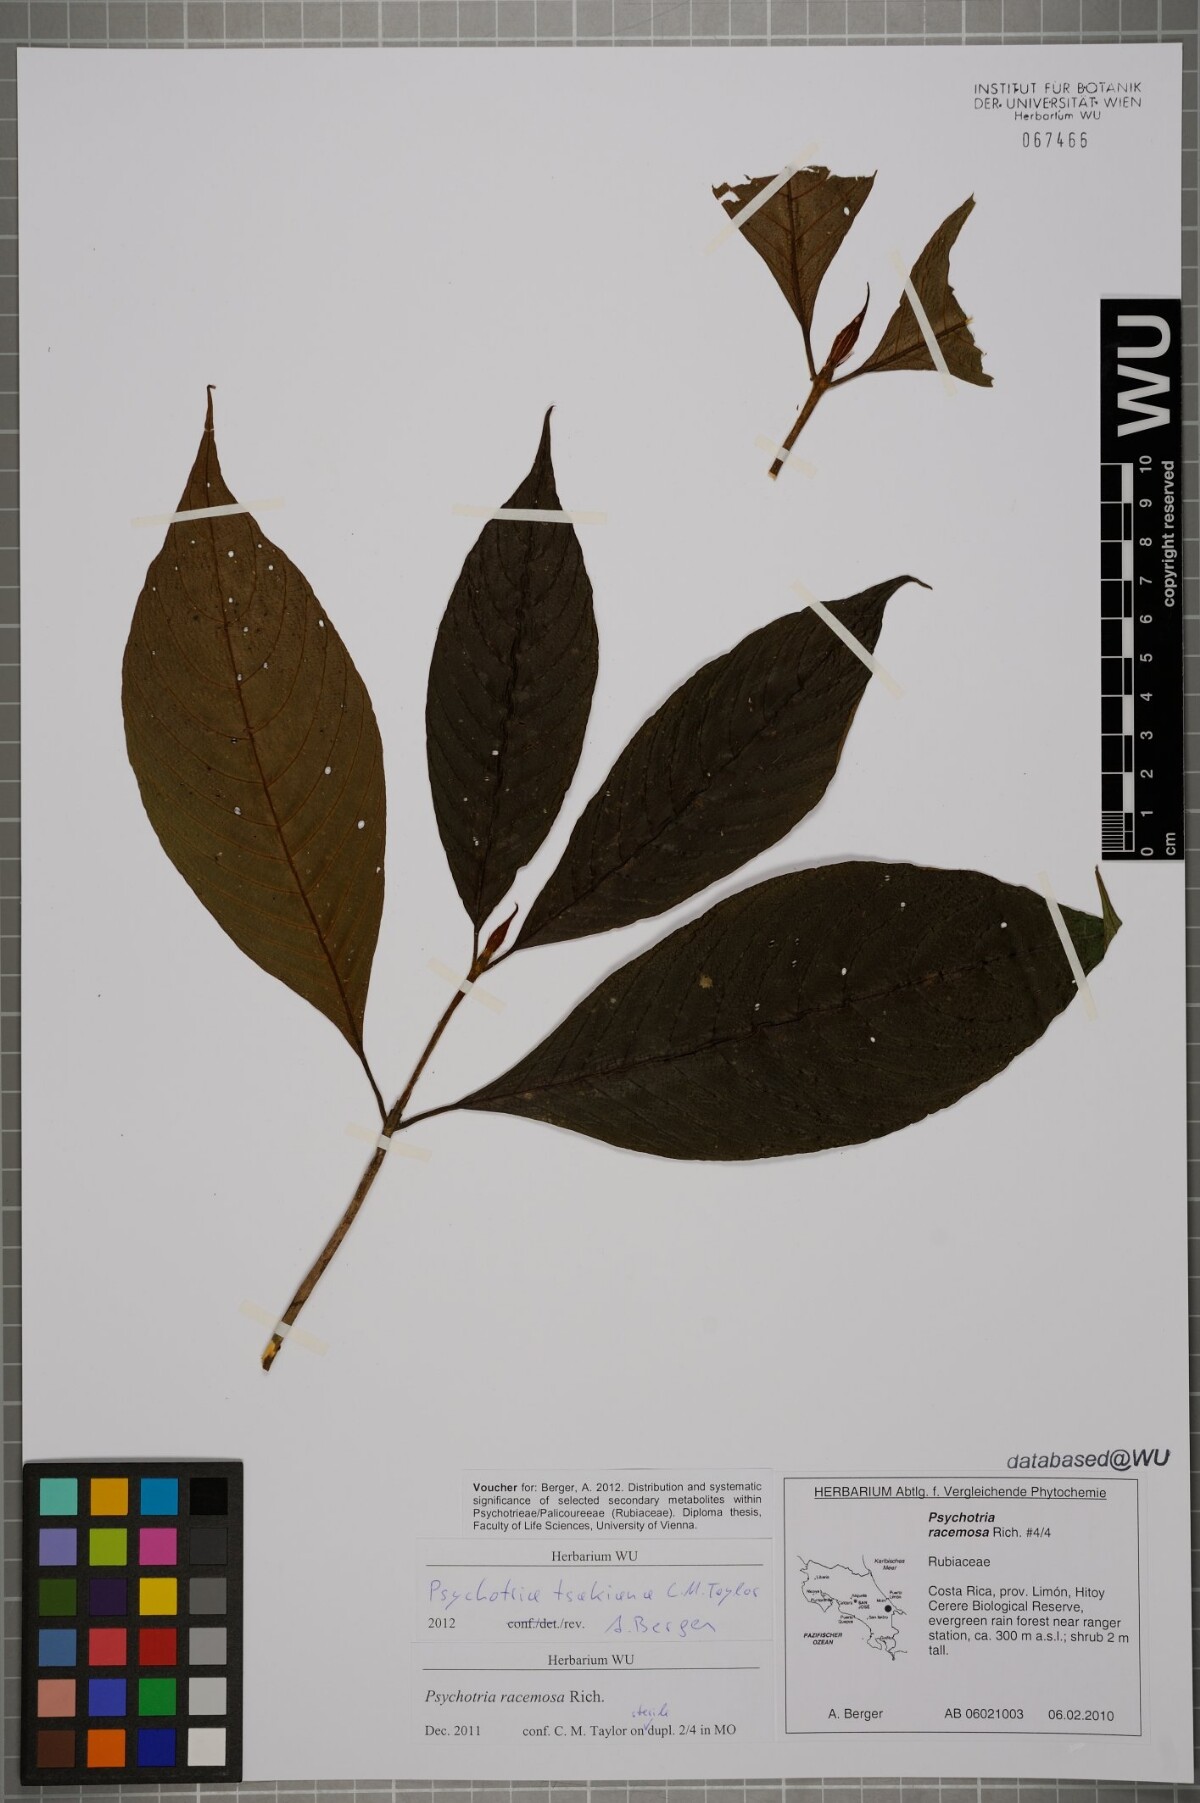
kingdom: Plantae
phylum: Tracheophyta
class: Magnoliopsida
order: Gentianales
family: Rubiaceae
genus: Palicourea
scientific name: Palicourea tsakiana
